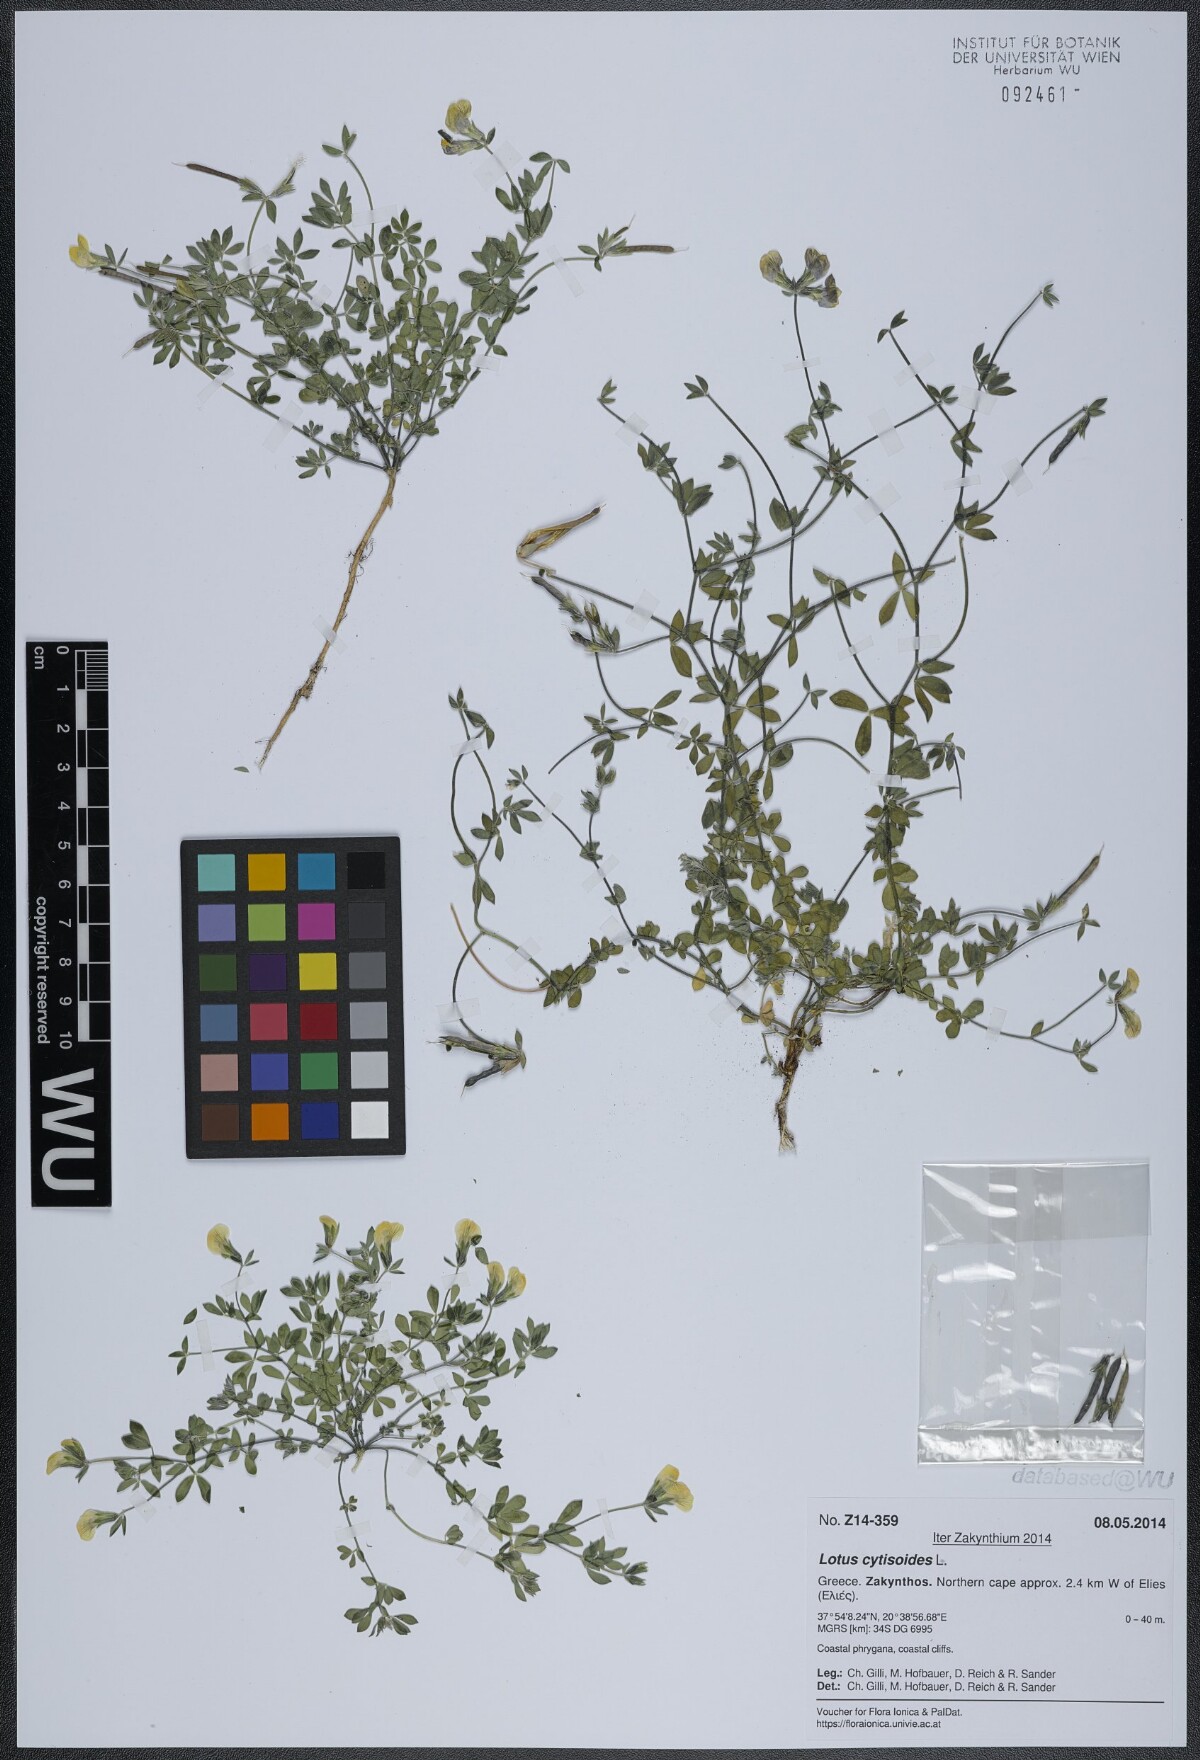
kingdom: Plantae
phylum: Tracheophyta
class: Magnoliopsida
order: Fabales
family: Fabaceae
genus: Lotus
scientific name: Lotus cytisoides
